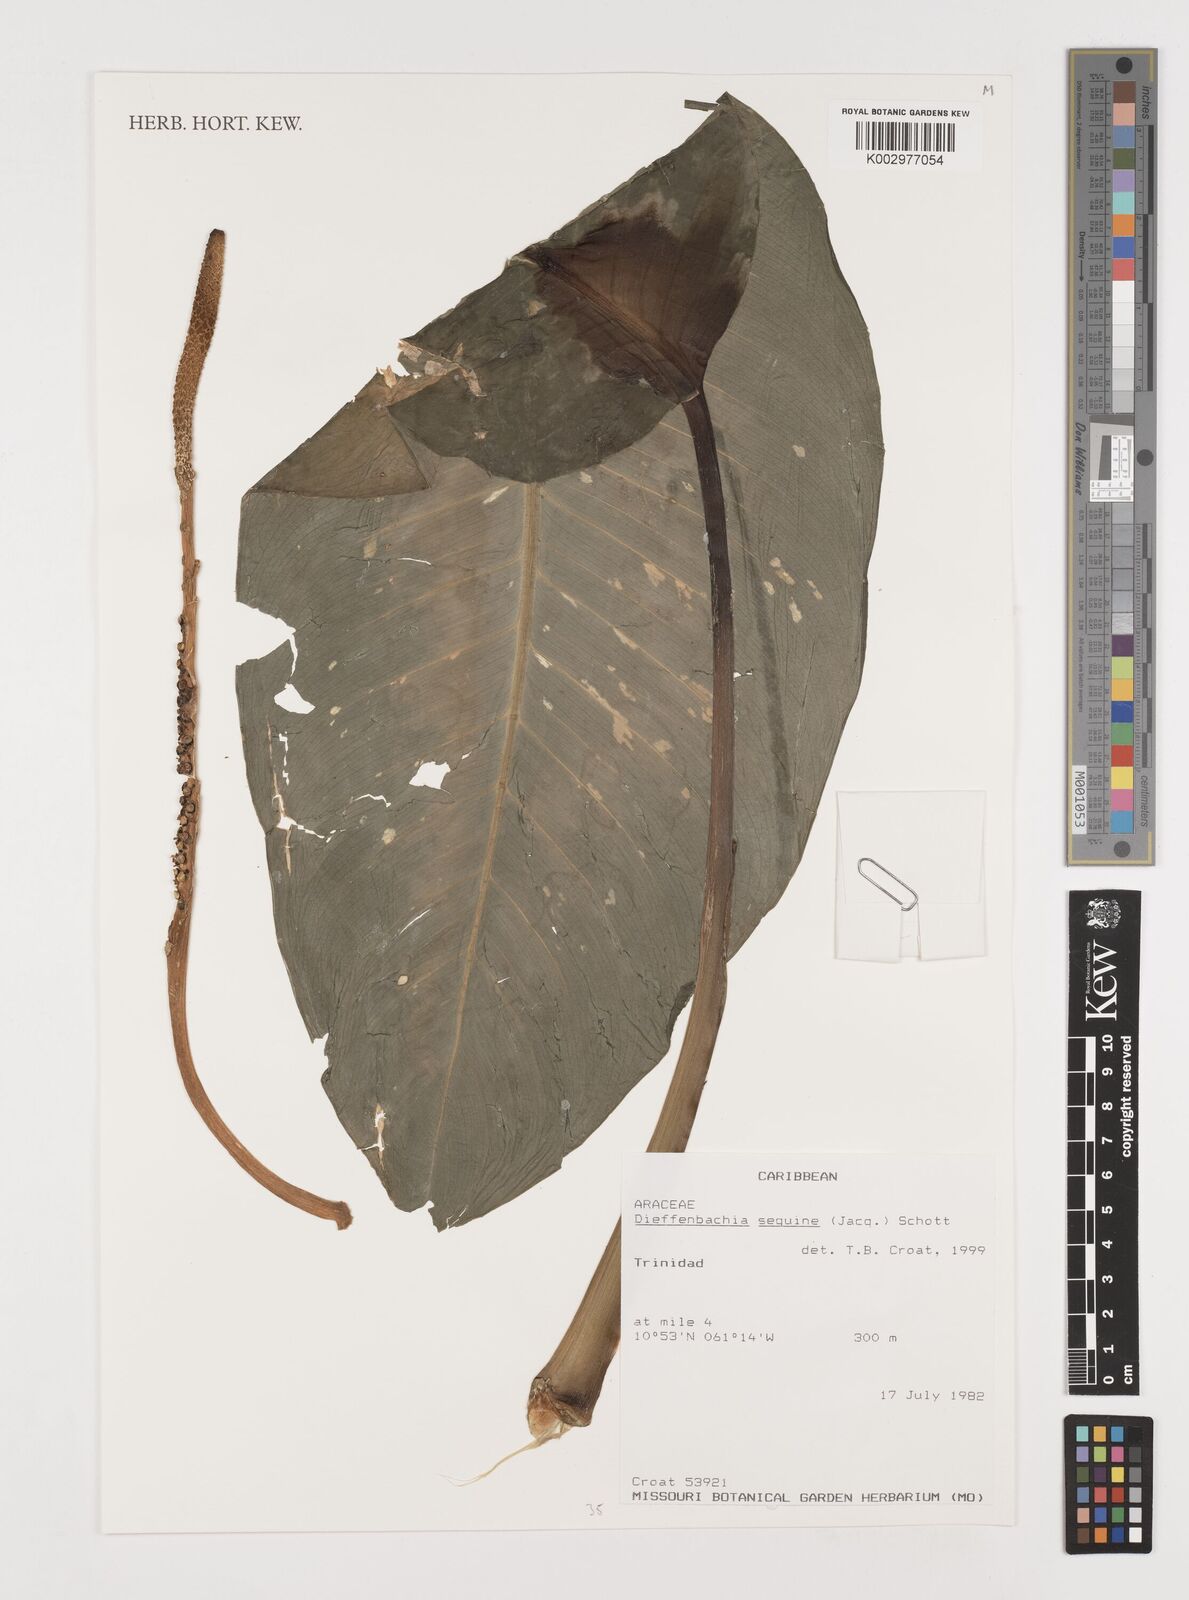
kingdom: Plantae
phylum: Tracheophyta
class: Liliopsida
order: Alismatales
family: Araceae
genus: Dieffenbachia
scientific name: Dieffenbachia seguine
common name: Dumbcane
